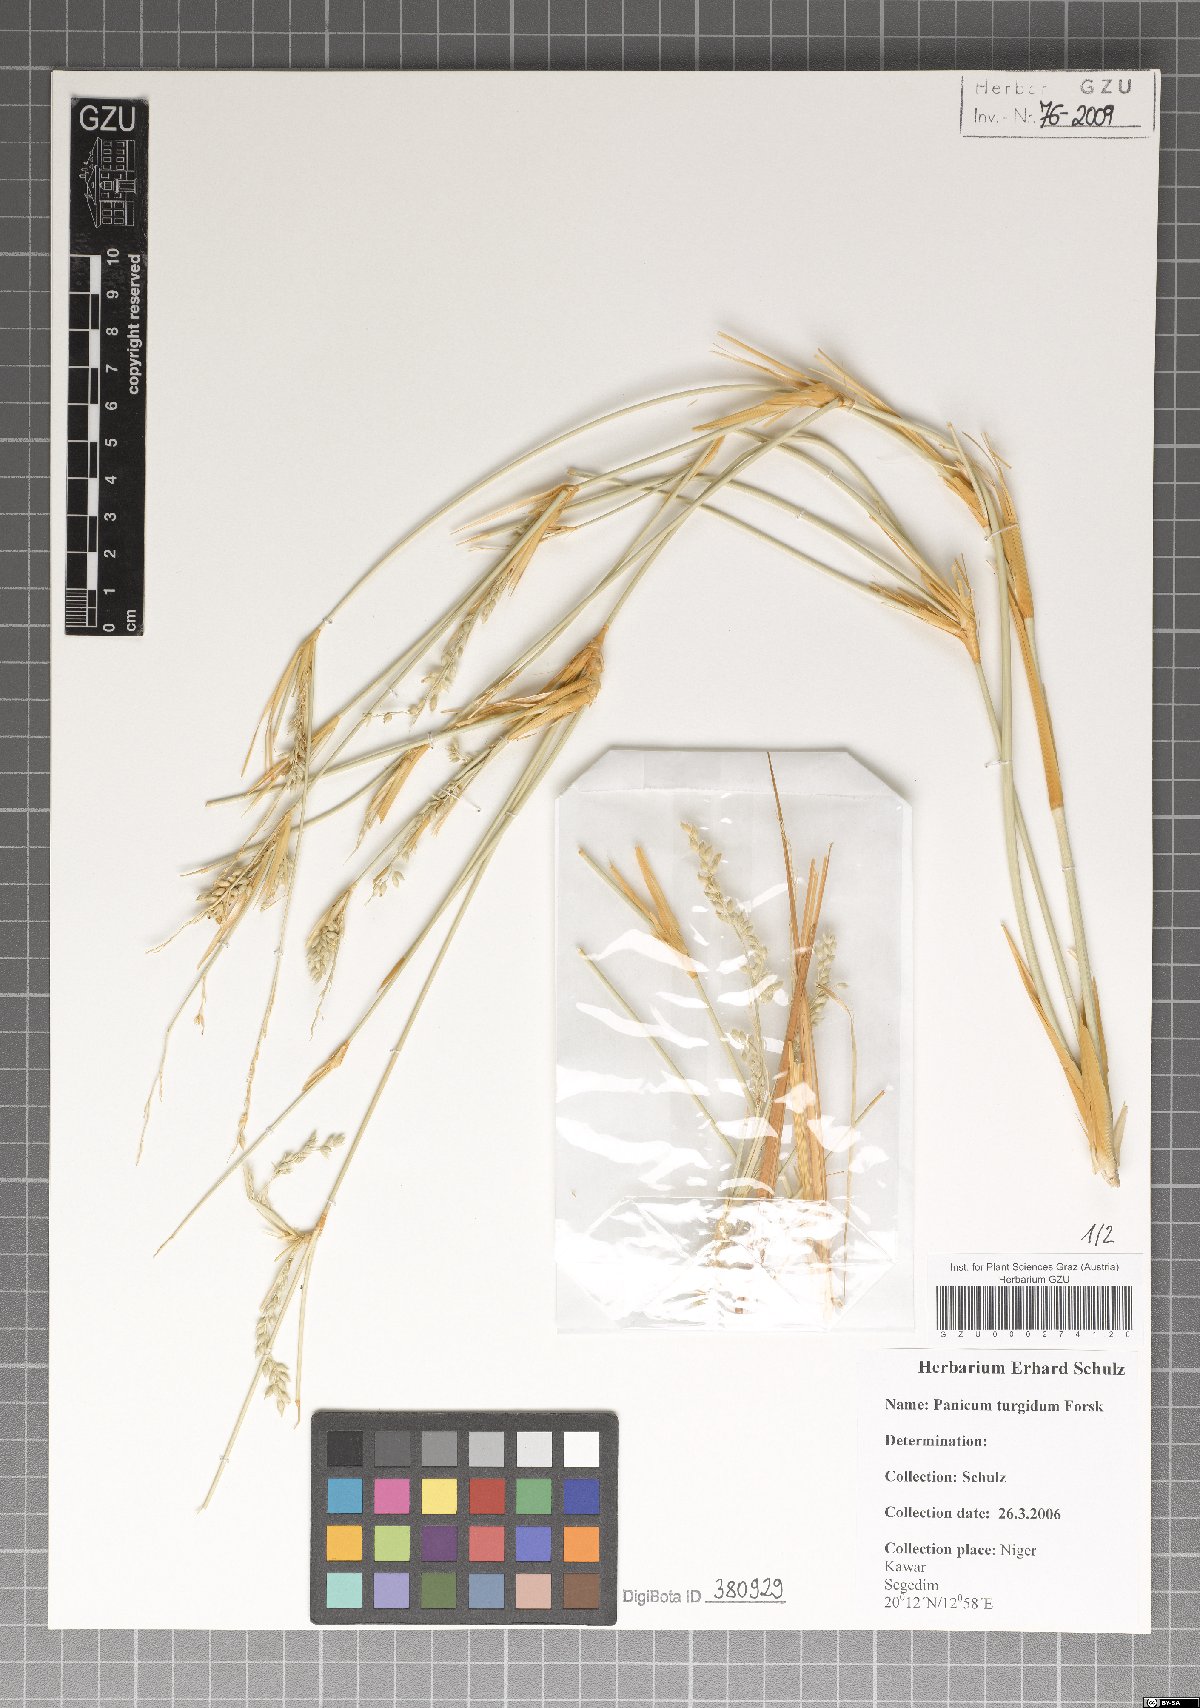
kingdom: Plantae
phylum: Tracheophyta
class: Liliopsida
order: Poales
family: Poaceae
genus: Panicum
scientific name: Panicum turgidum
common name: Desert grass
